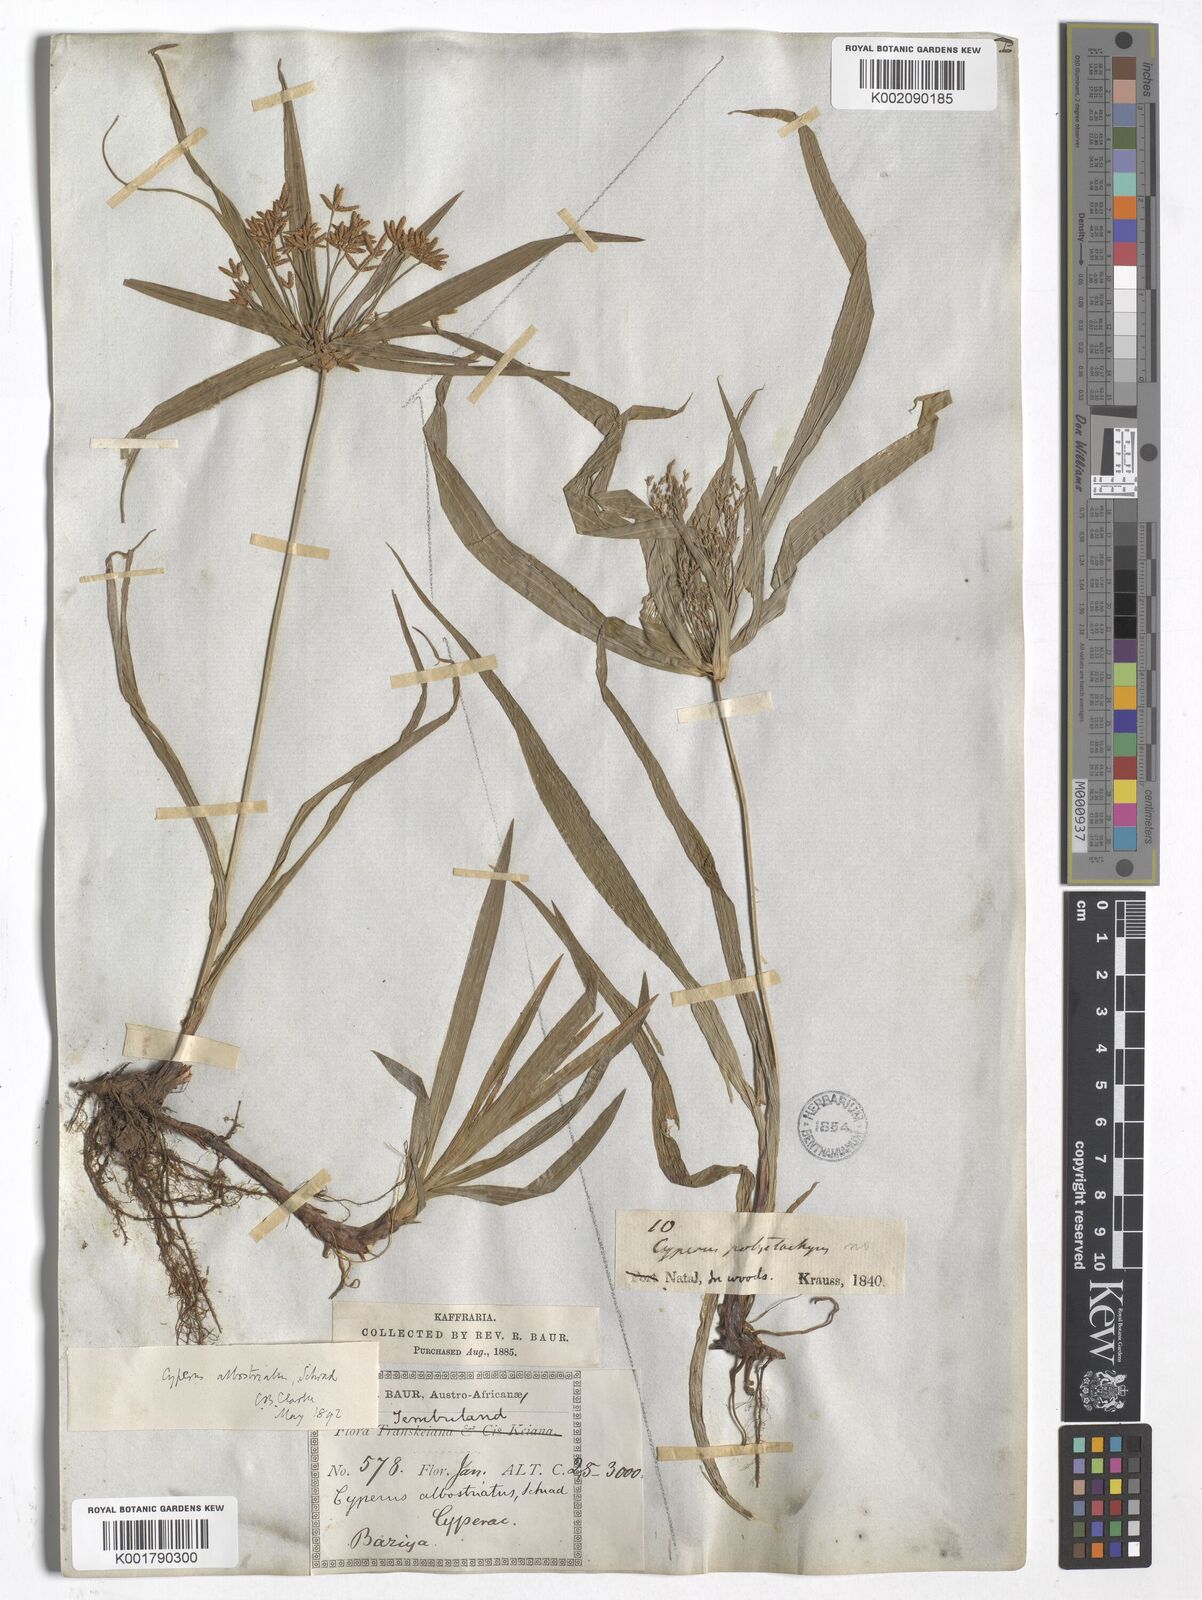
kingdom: Plantae
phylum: Tracheophyta
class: Liliopsida
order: Poales
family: Cyperaceae
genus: Cyperus
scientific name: Cyperus
